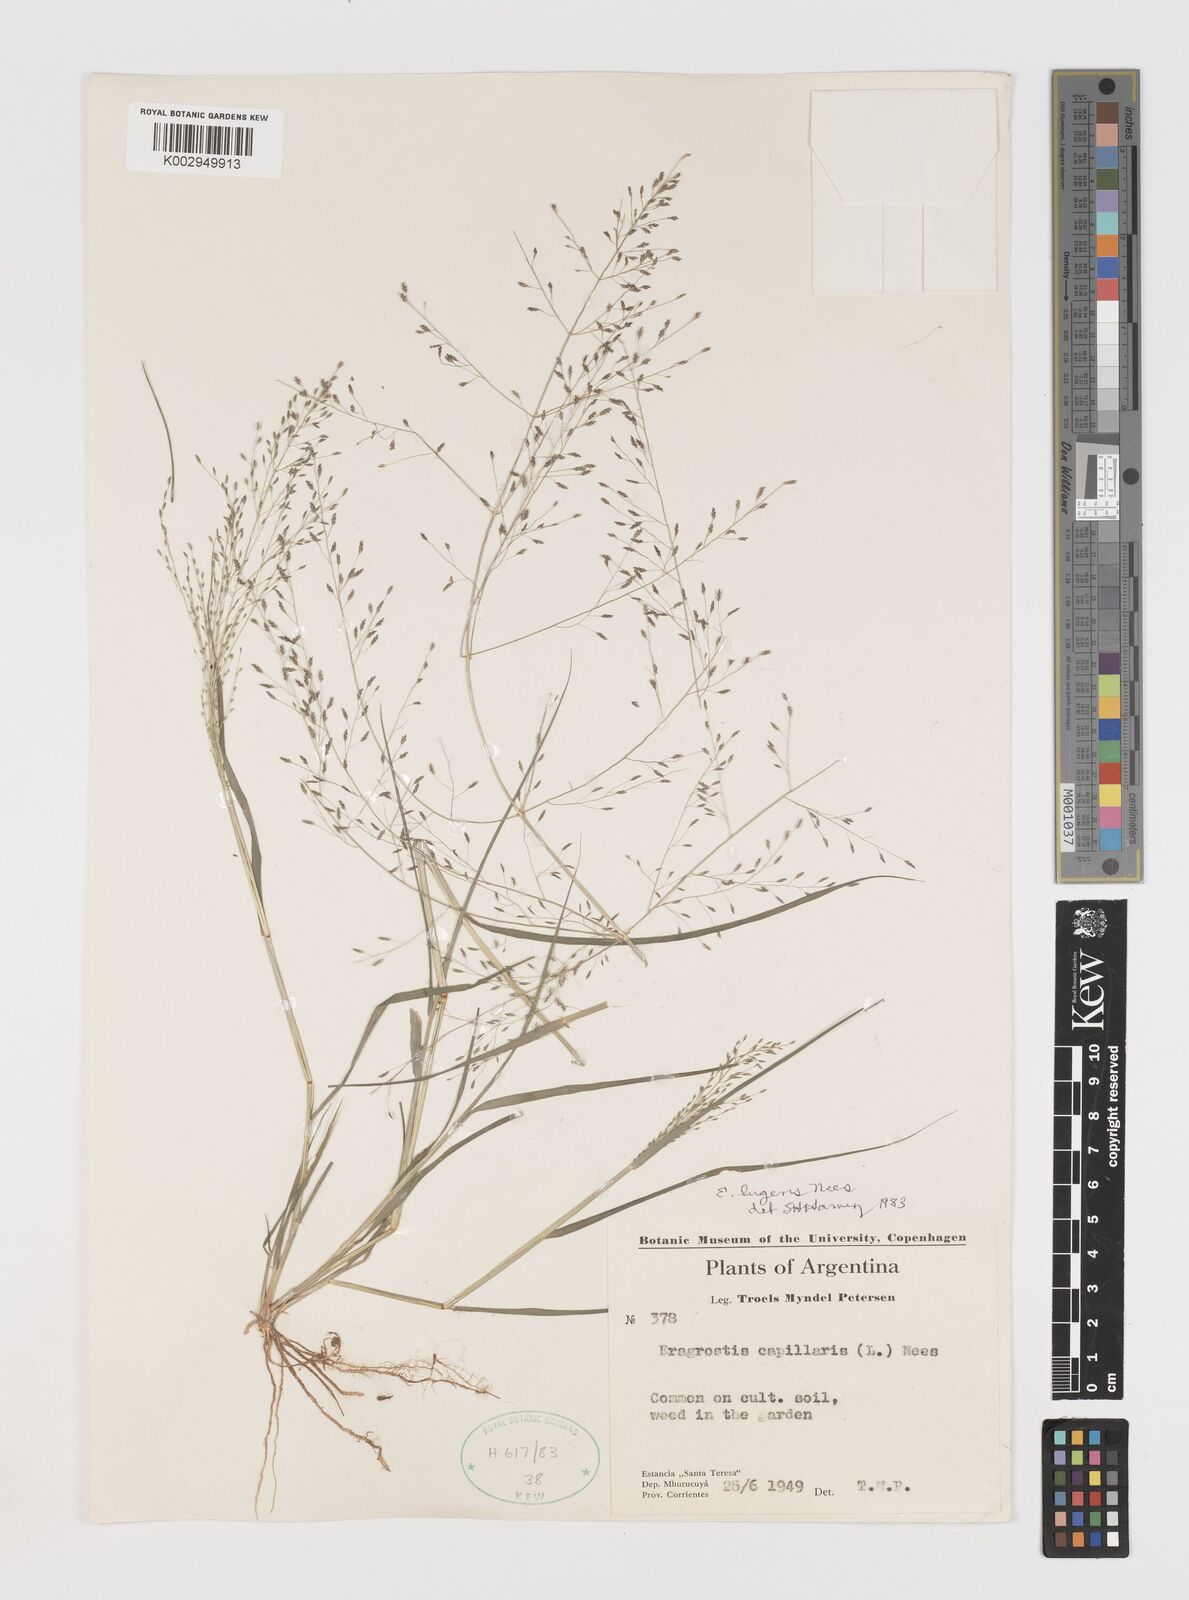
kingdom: Plantae
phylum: Tracheophyta
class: Liliopsida
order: Poales
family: Poaceae
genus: Eragrostis
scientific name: Eragrostis lugens
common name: Mourning love grass
